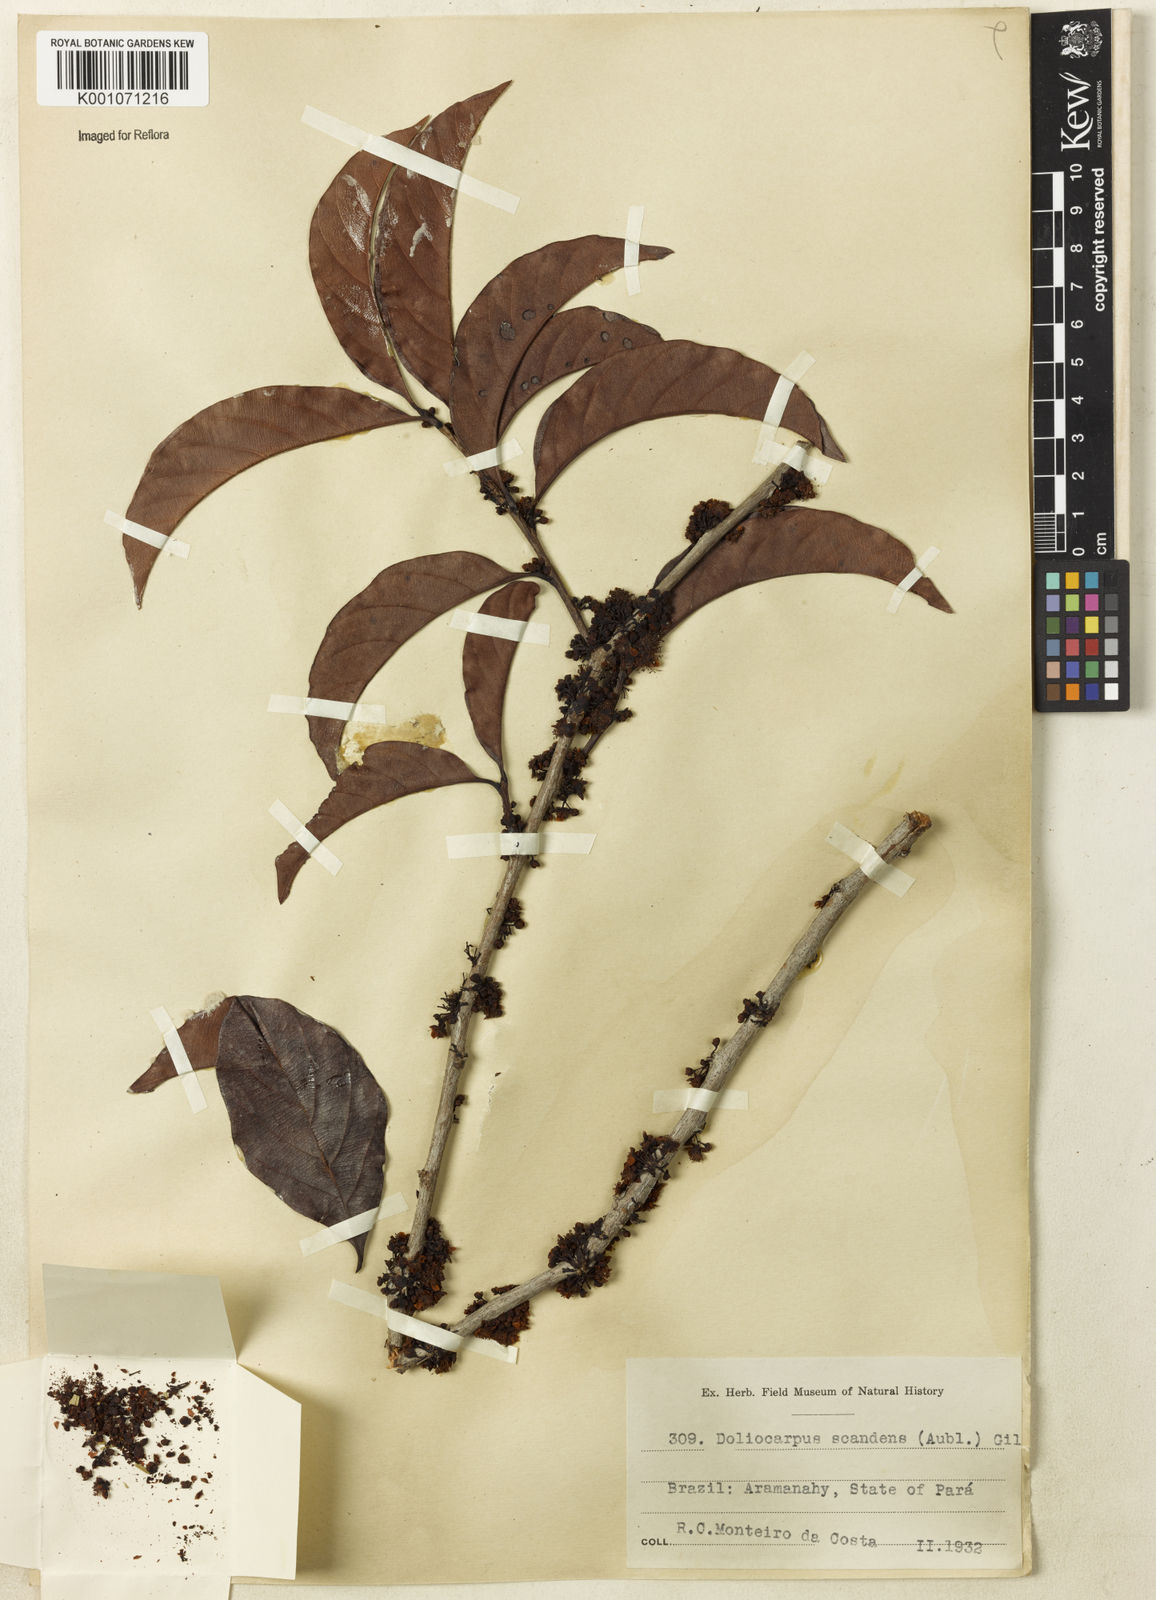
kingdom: Plantae
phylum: Tracheophyta
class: Magnoliopsida
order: Dilleniales
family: Dilleniaceae
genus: Doliocarpus
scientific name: Doliocarpus spraguei
